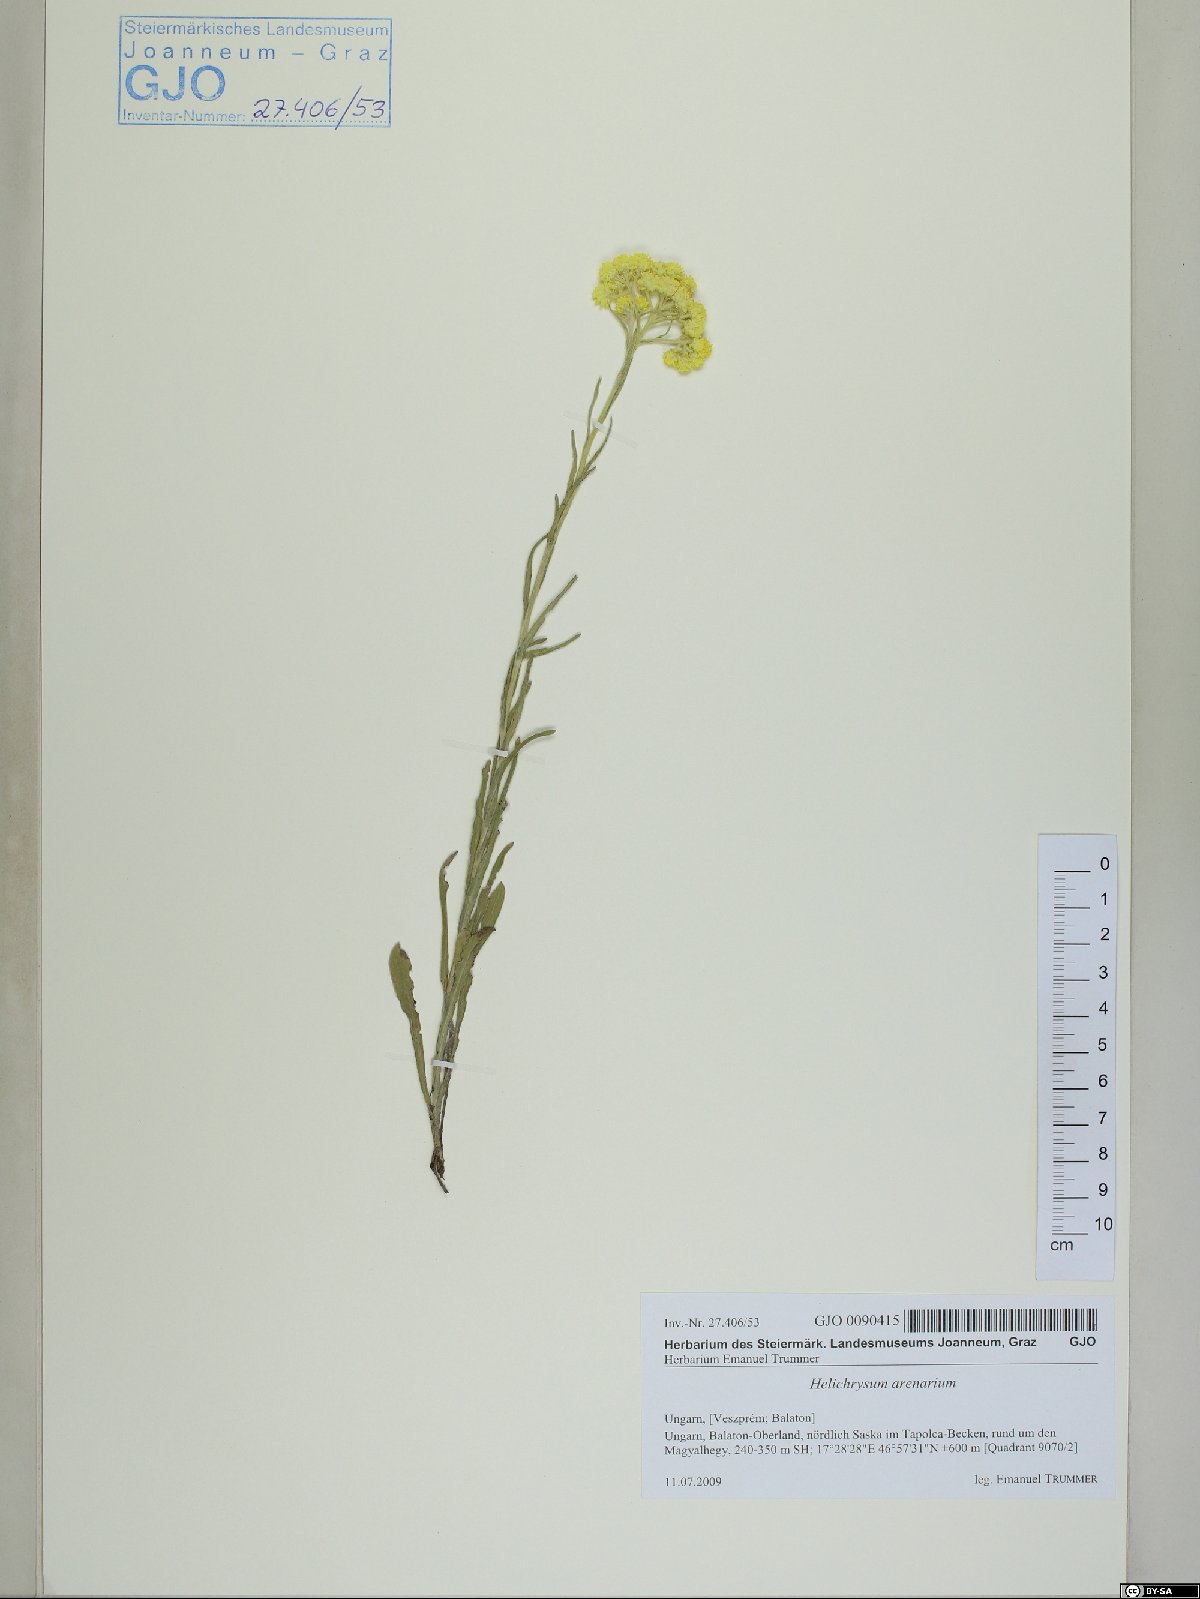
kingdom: Plantae
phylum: Tracheophyta
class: Magnoliopsida
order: Asterales
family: Asteraceae
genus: Helichrysum
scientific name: Helichrysum arenarium
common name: Strawflower
